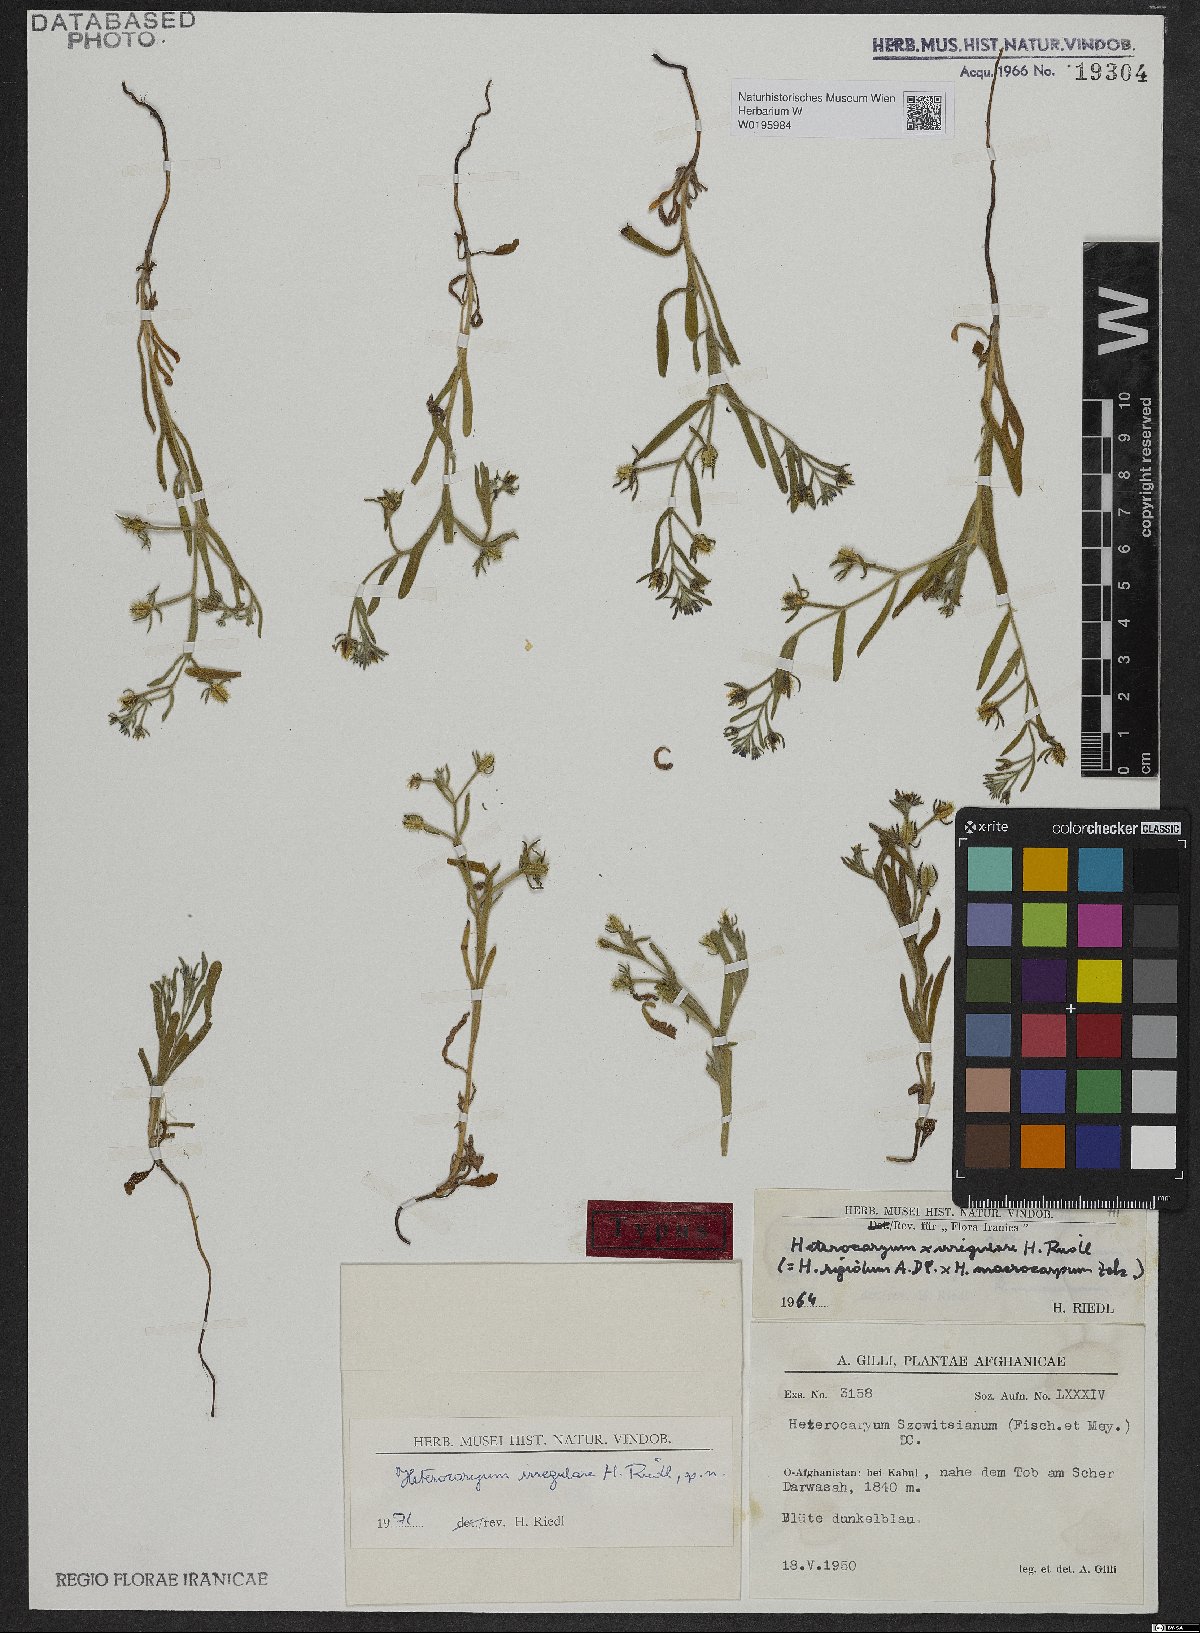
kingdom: Plantae
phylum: Tracheophyta
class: Magnoliopsida
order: Boraginales
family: Boraginaceae
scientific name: Boraginaceae
